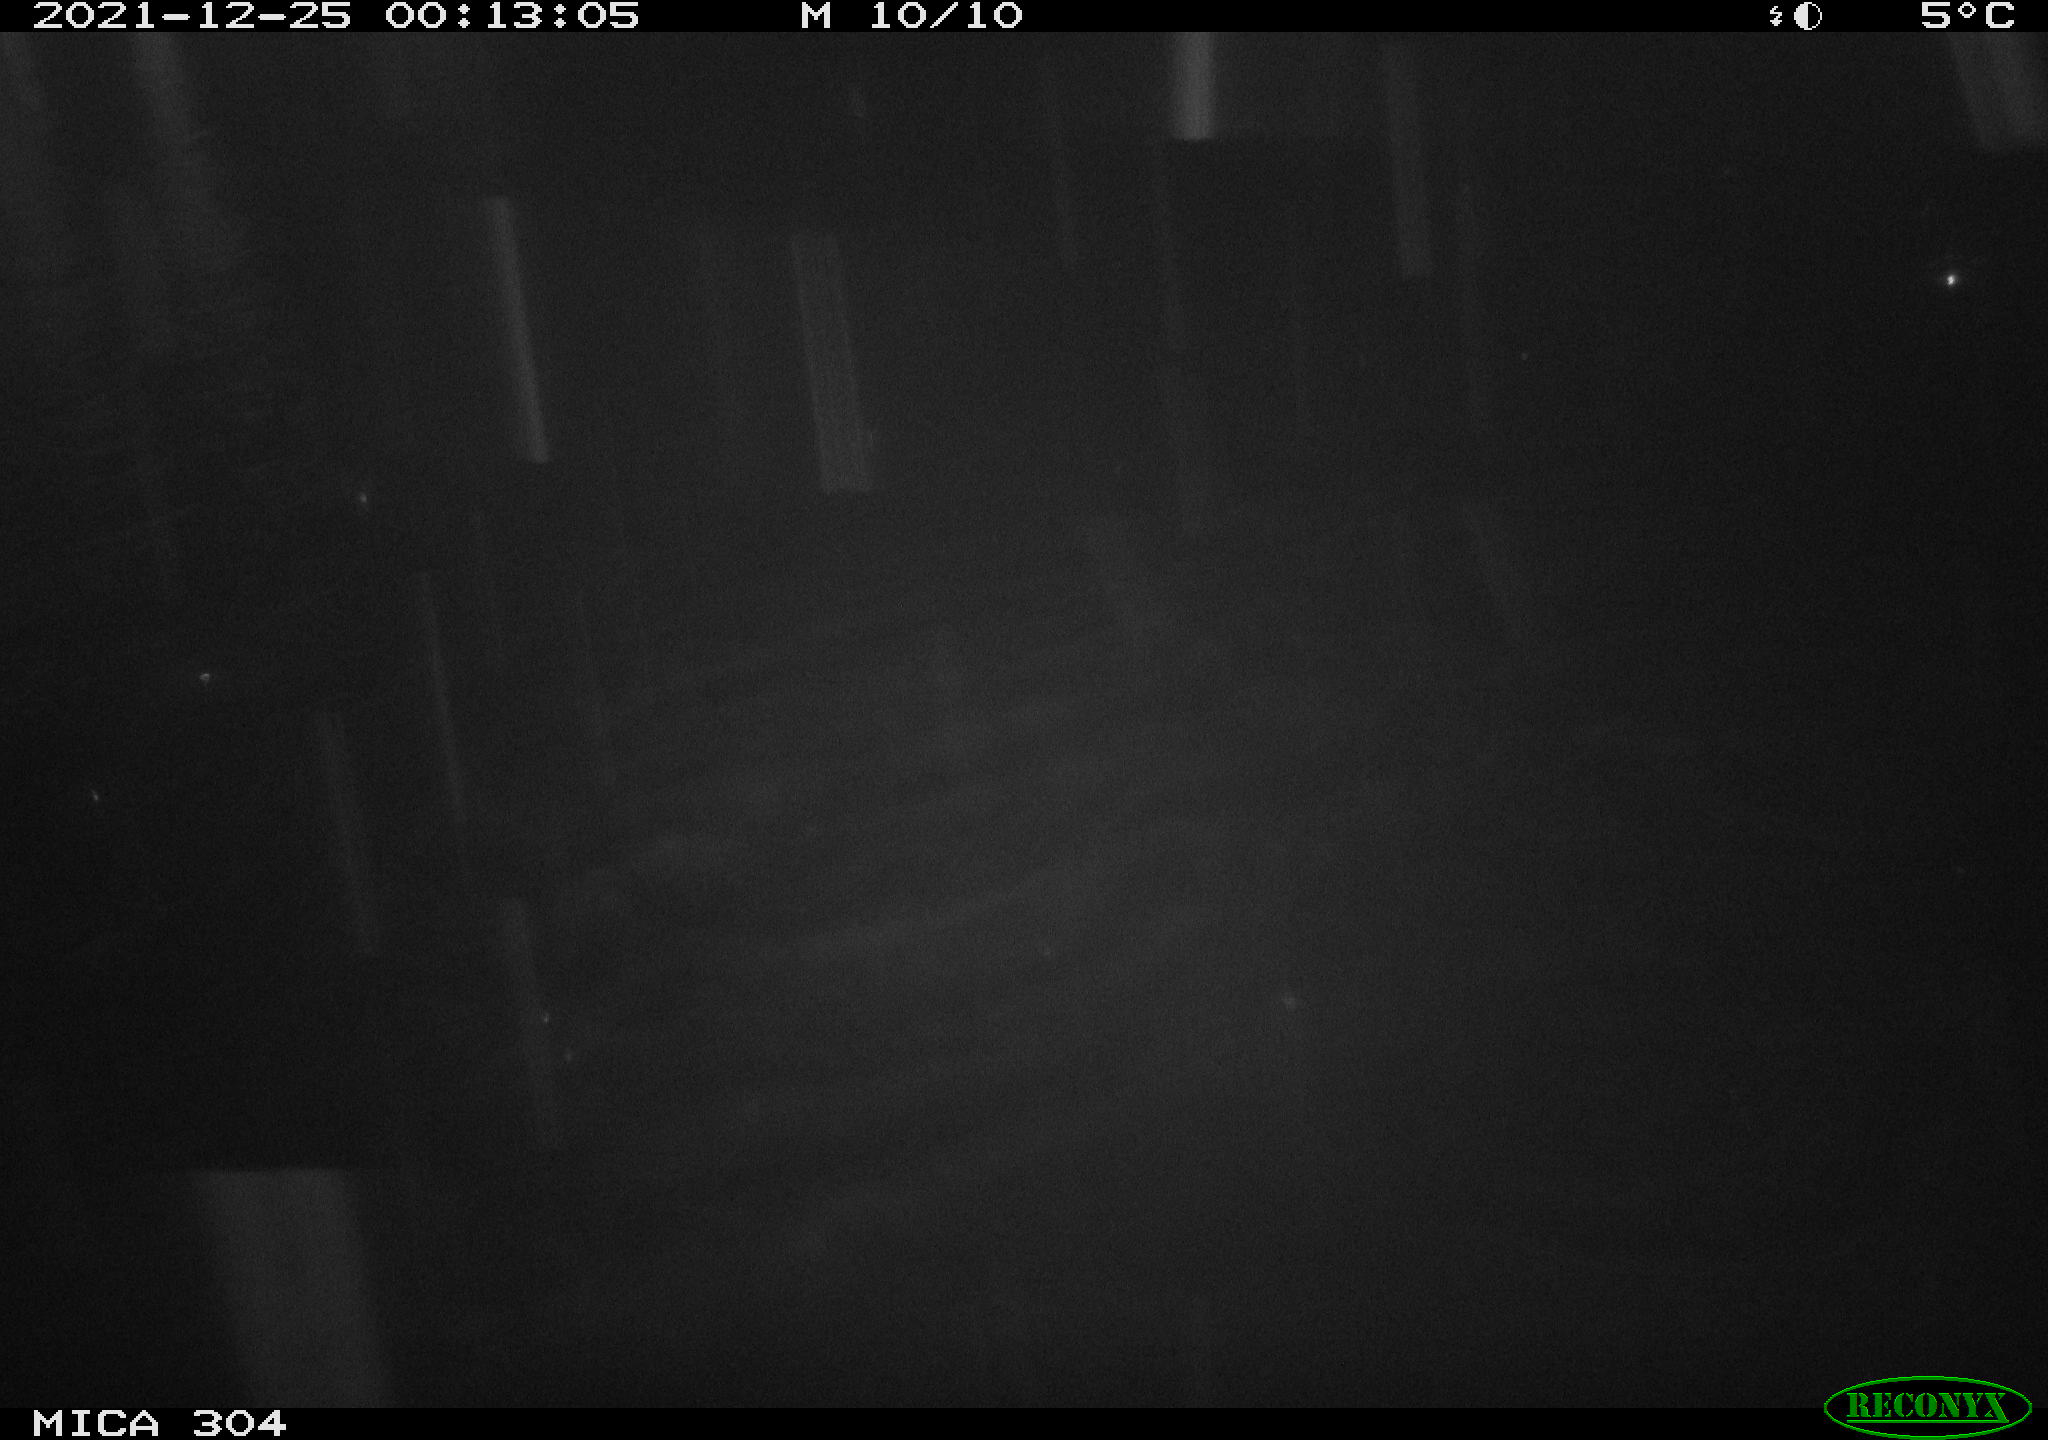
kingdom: Animalia
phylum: Chordata
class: Aves
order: Anseriformes
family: Anatidae
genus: Anas
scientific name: Anas
